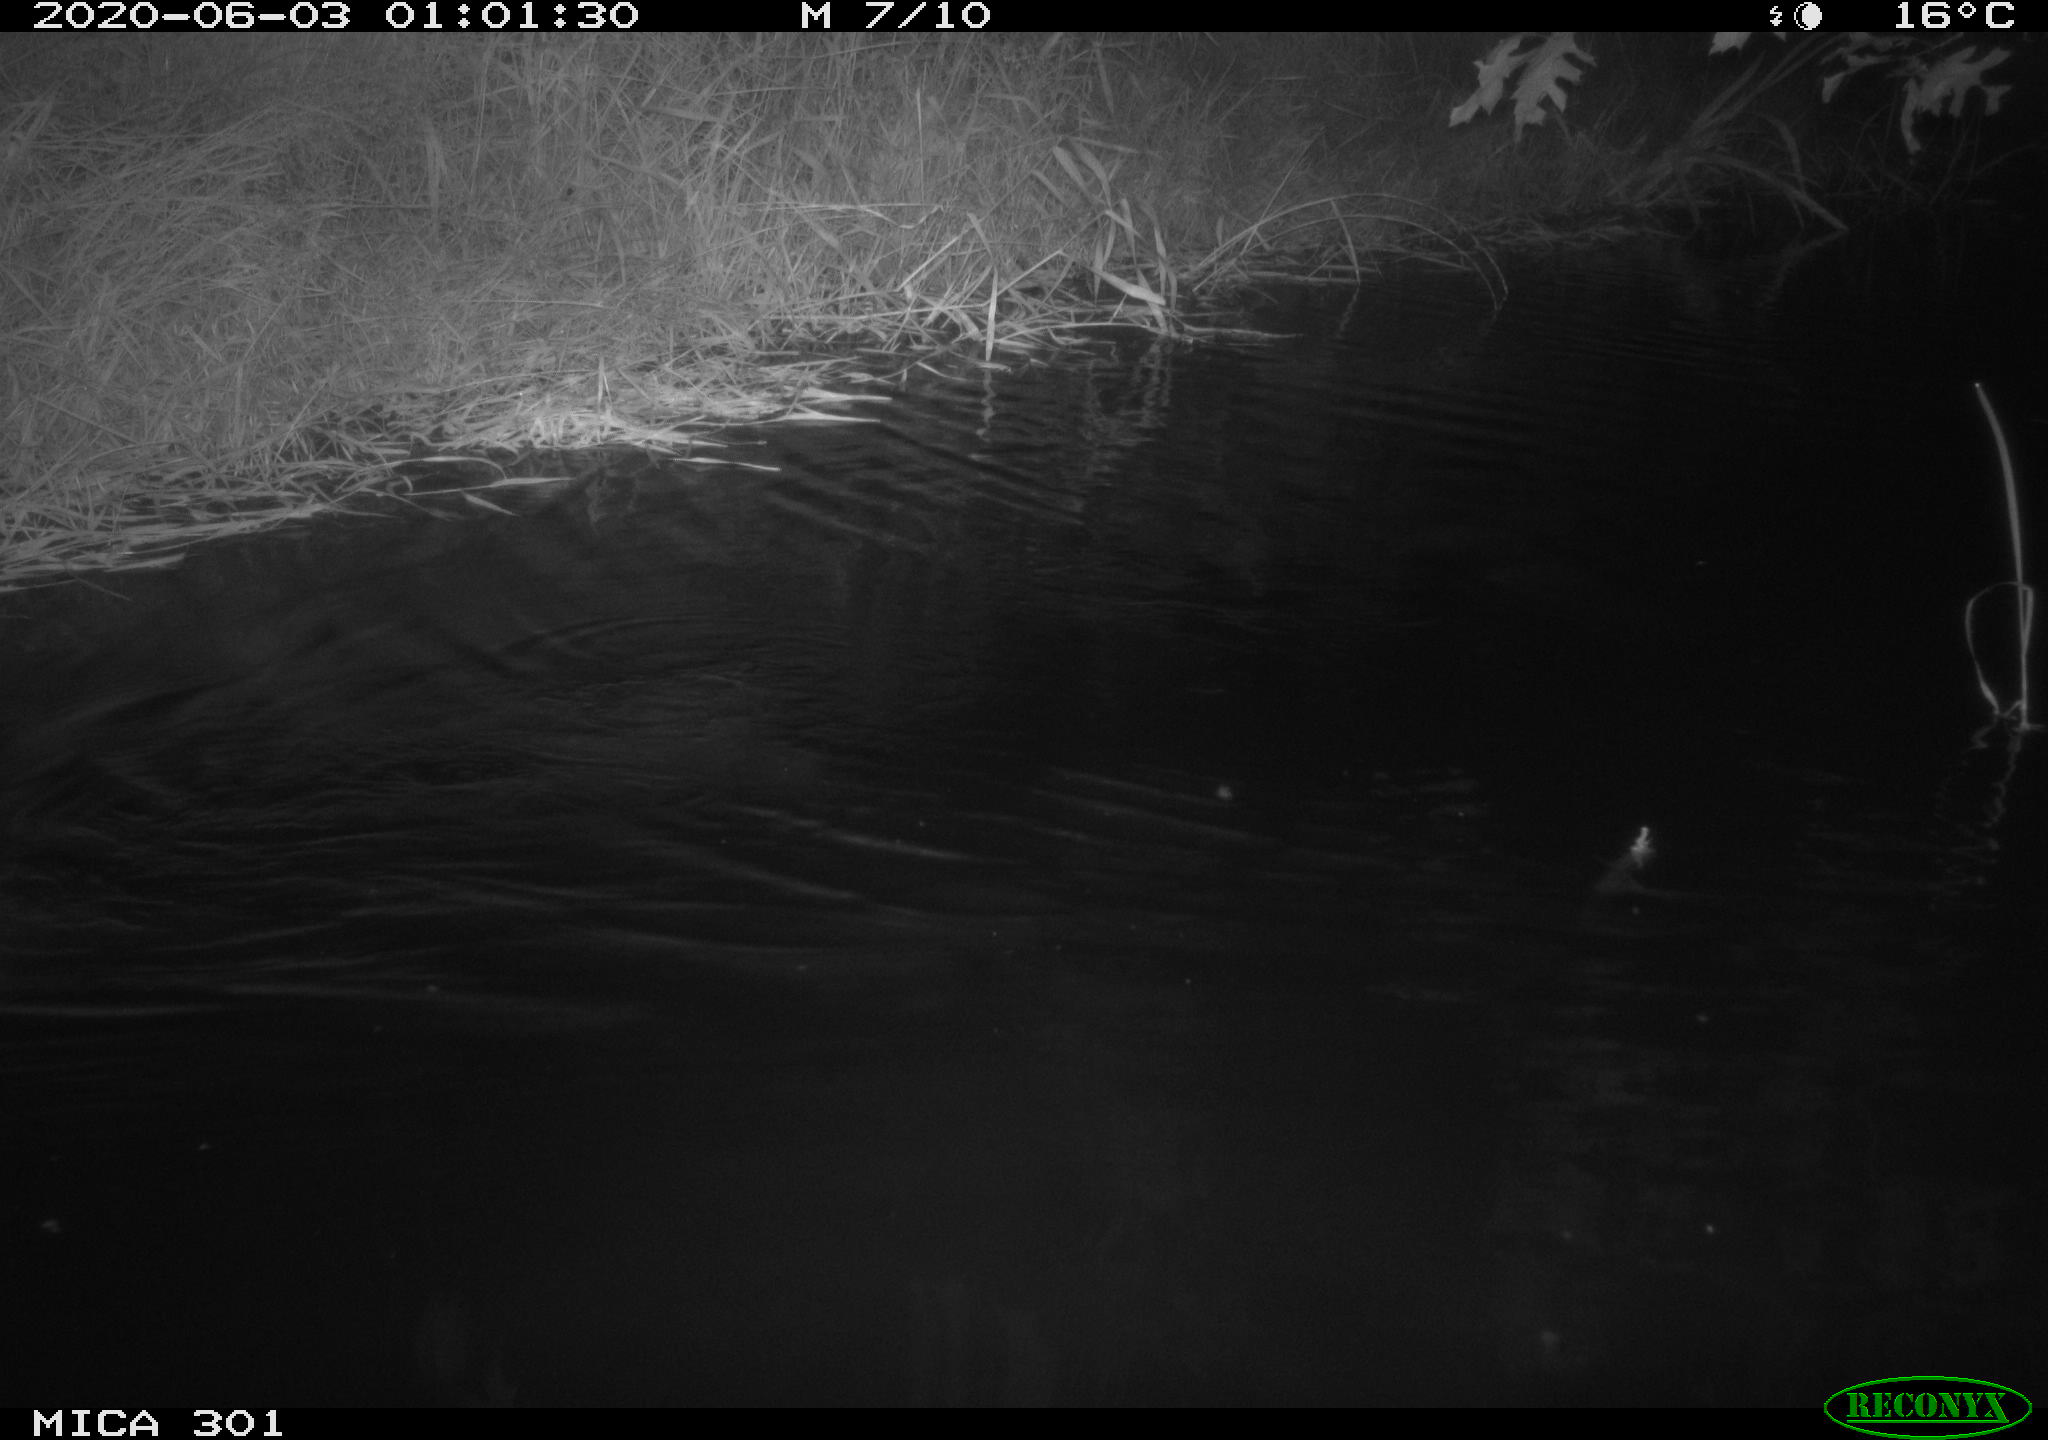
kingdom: Animalia
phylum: Chordata
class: Mammalia
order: Rodentia
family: Castoridae
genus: Castor
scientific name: Castor fiber
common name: Eurasian beaver
